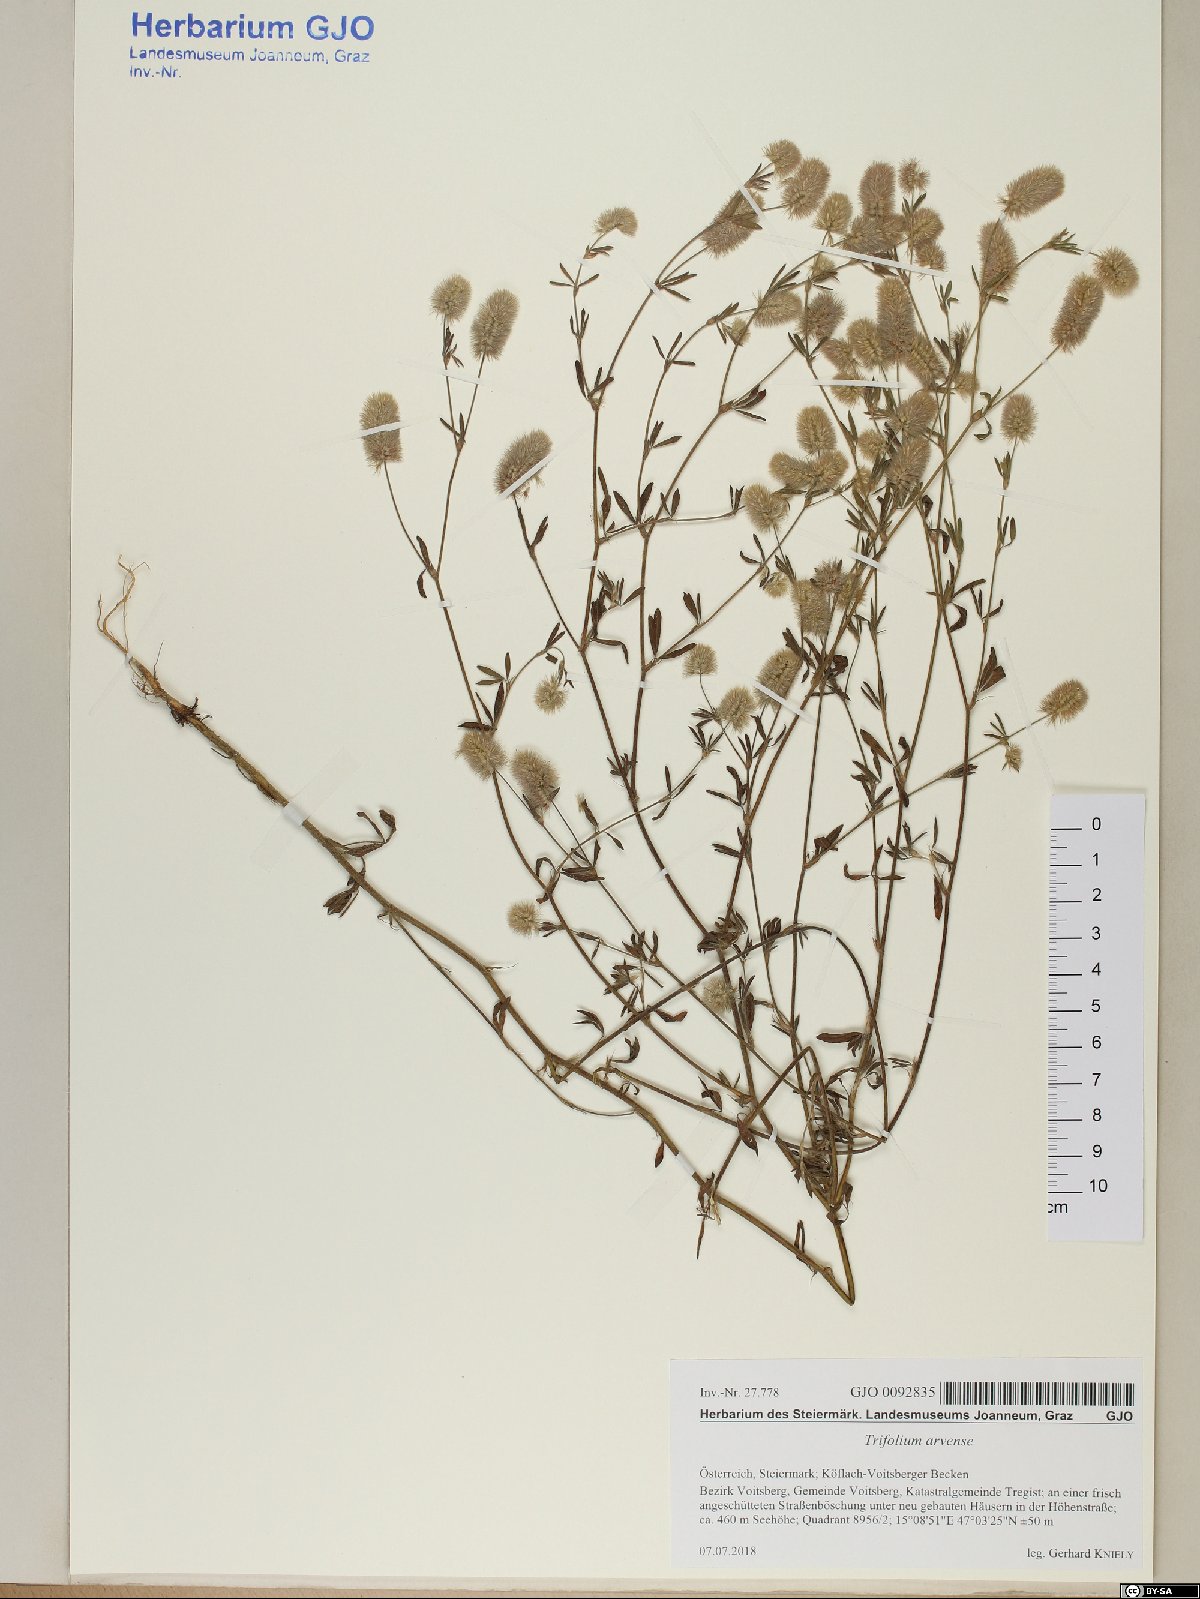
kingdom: Plantae
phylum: Tracheophyta
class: Magnoliopsida
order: Fabales
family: Fabaceae
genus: Trifolium
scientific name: Trifolium arvense
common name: Hare's-foot clover
